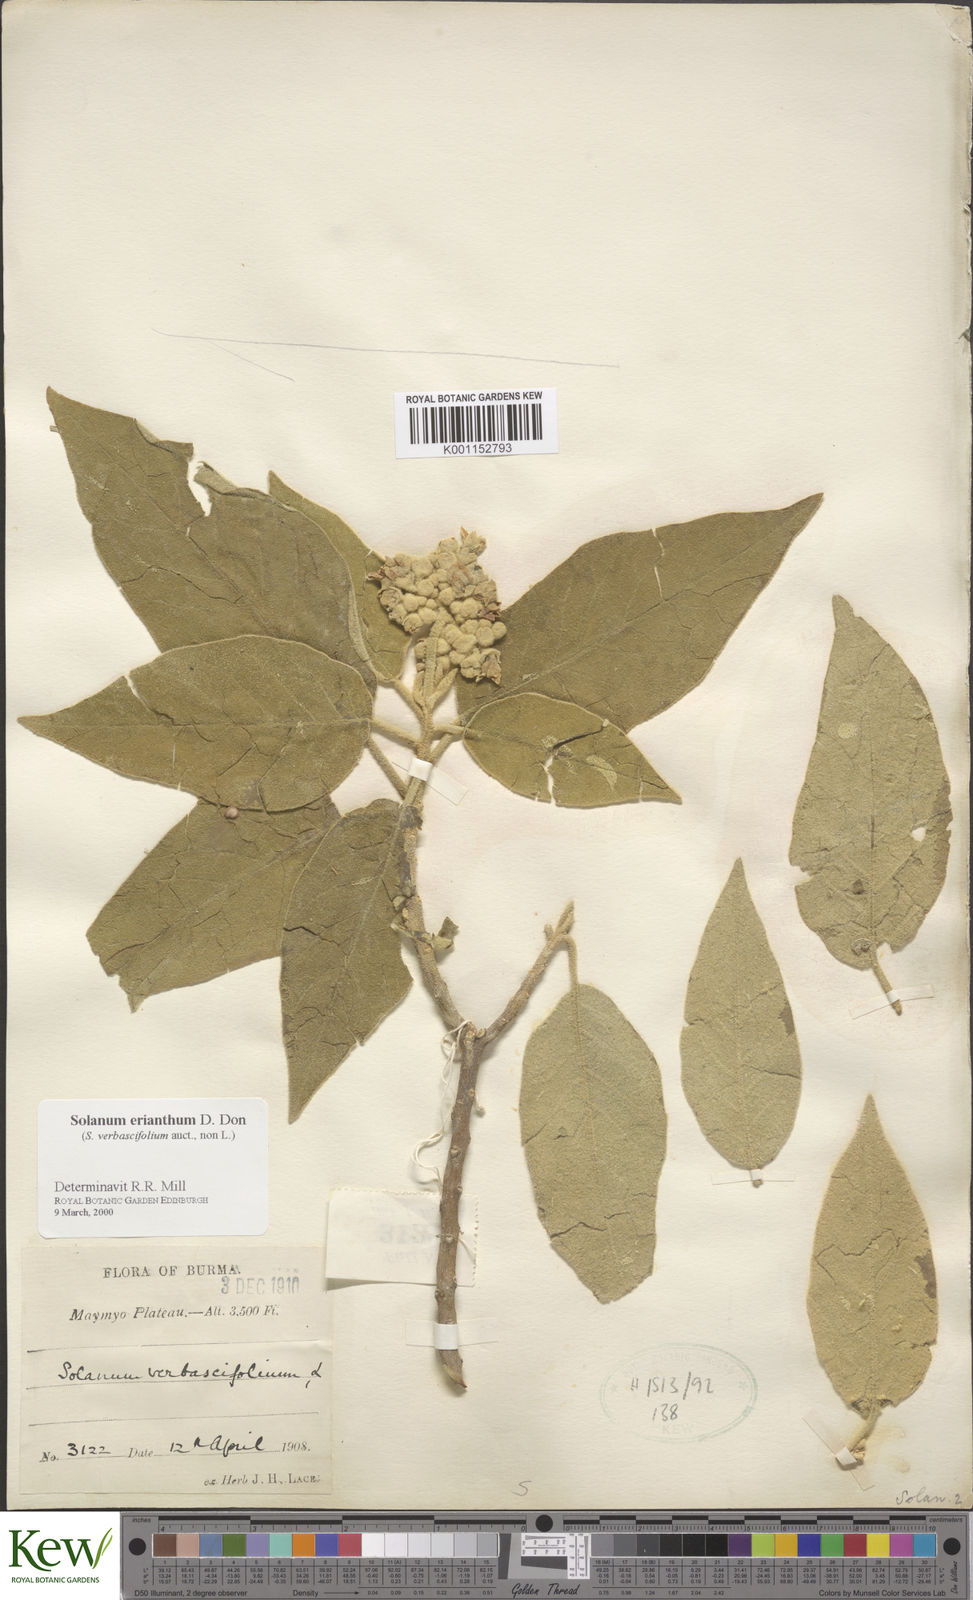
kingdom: Plantae
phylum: Tracheophyta
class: Magnoliopsida
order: Solanales
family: Solanaceae
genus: Solanum
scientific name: Solanum erianthum
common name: Tobacco-tree
